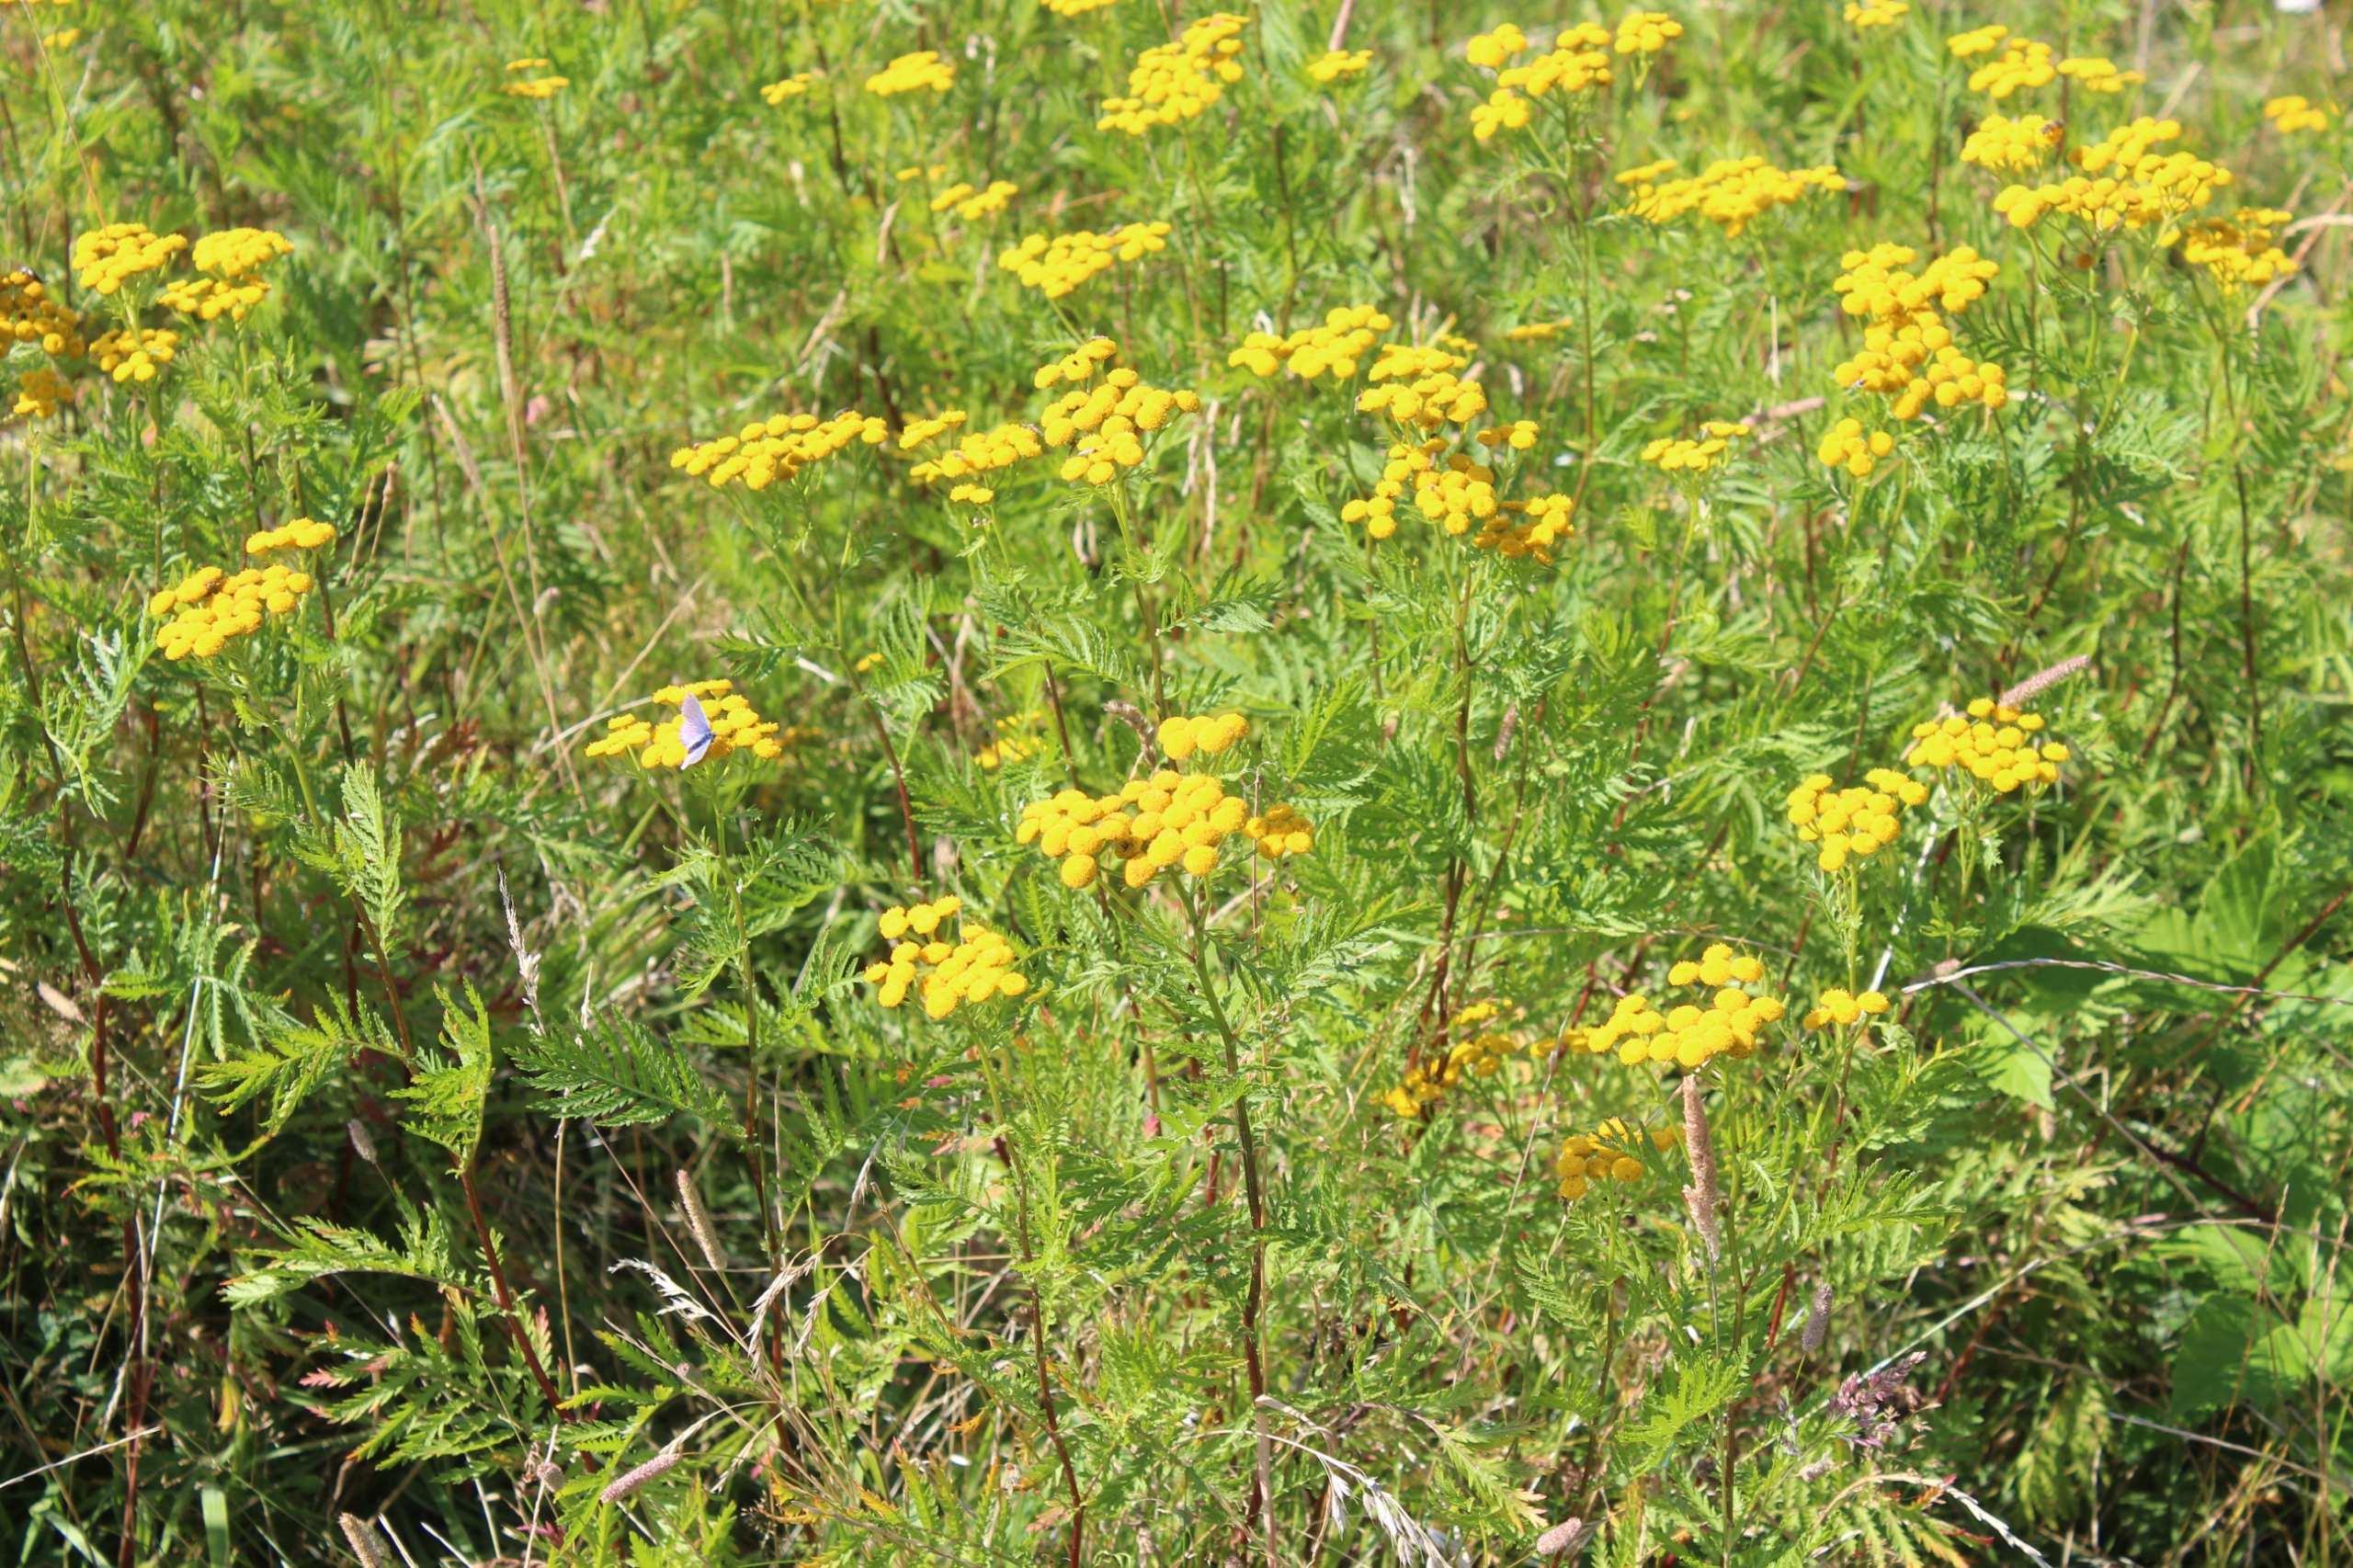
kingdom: Plantae
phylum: Tracheophyta
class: Magnoliopsida
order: Asterales
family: Asteraceae
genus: Tanacetum
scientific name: Tanacetum vulgare
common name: Rejnfan
